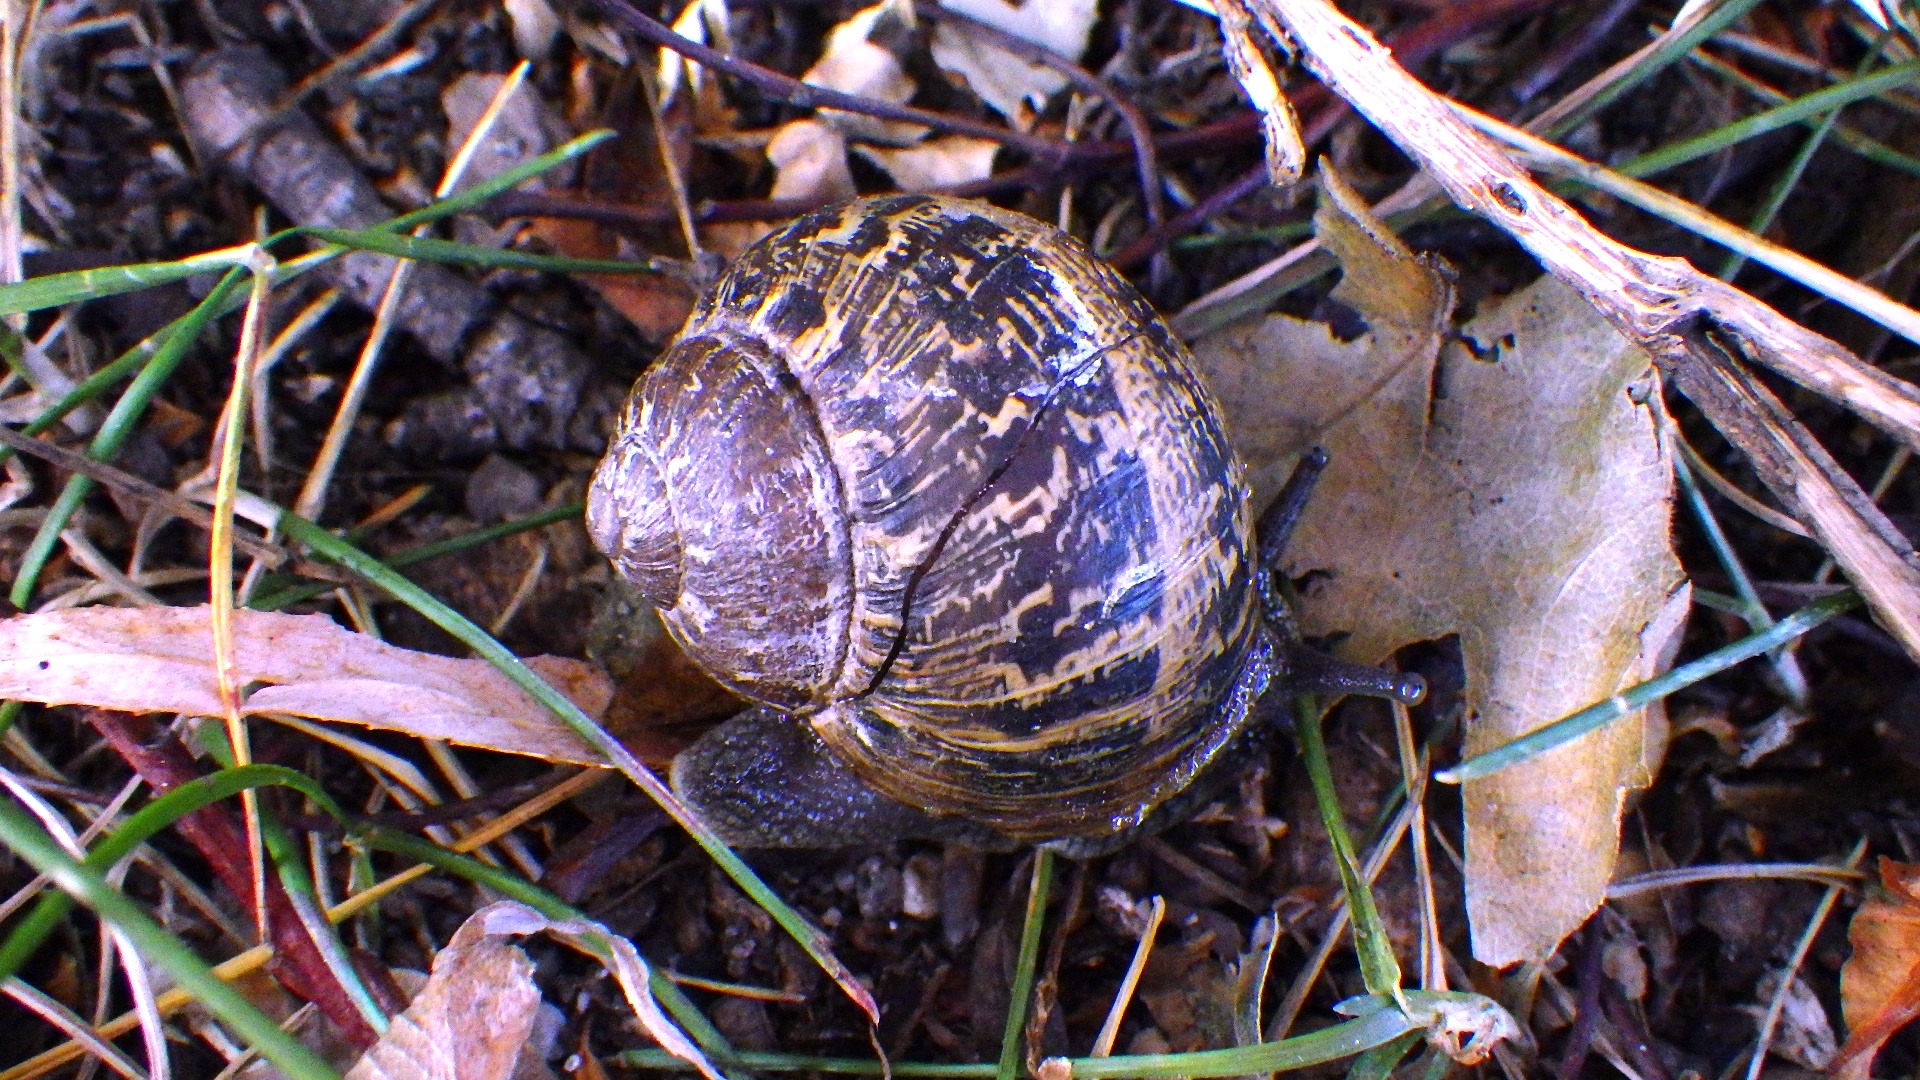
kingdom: Animalia
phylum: Mollusca
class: Gastropoda
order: Stylommatophora
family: Helicidae
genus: Cornu
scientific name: Cornu aspersum
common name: Plettet voldsnegl
